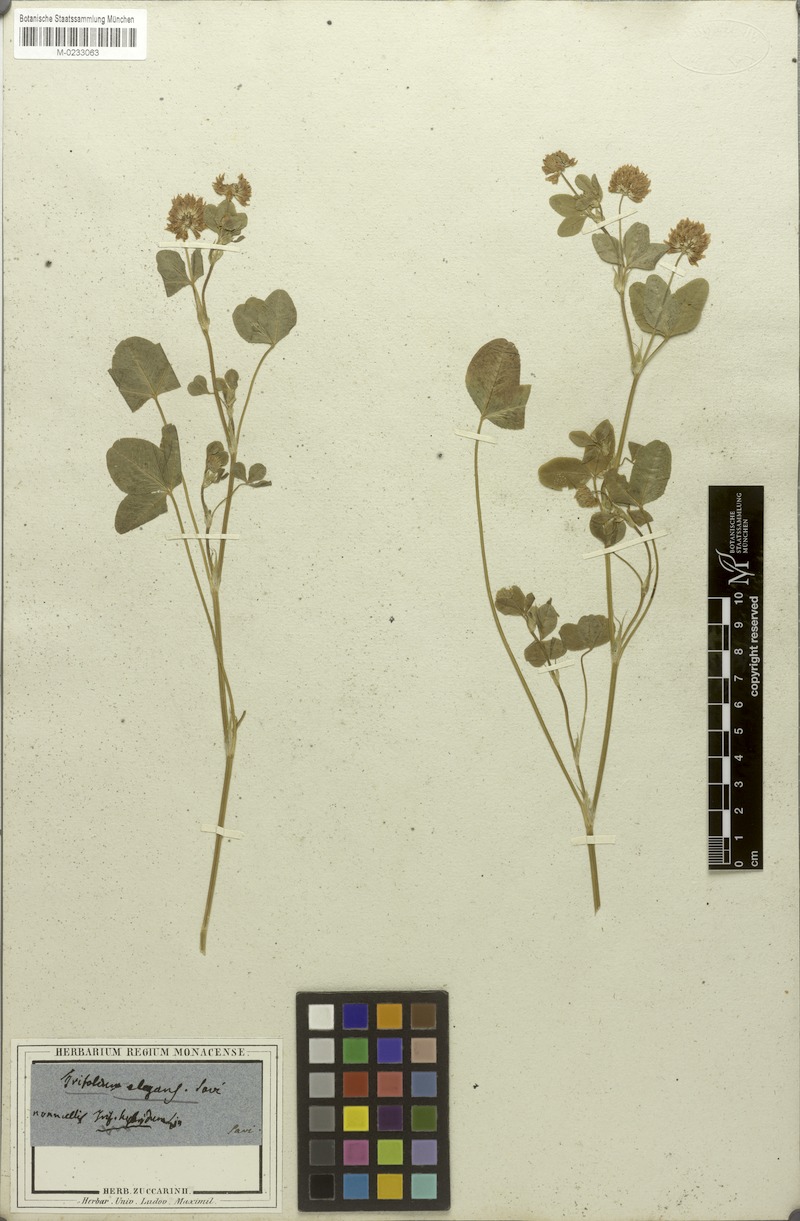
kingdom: Plantae
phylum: Tracheophyta
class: Magnoliopsida
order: Fabales
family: Fabaceae
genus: Trifolium
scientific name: Trifolium hybridum
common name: Alsike clover
